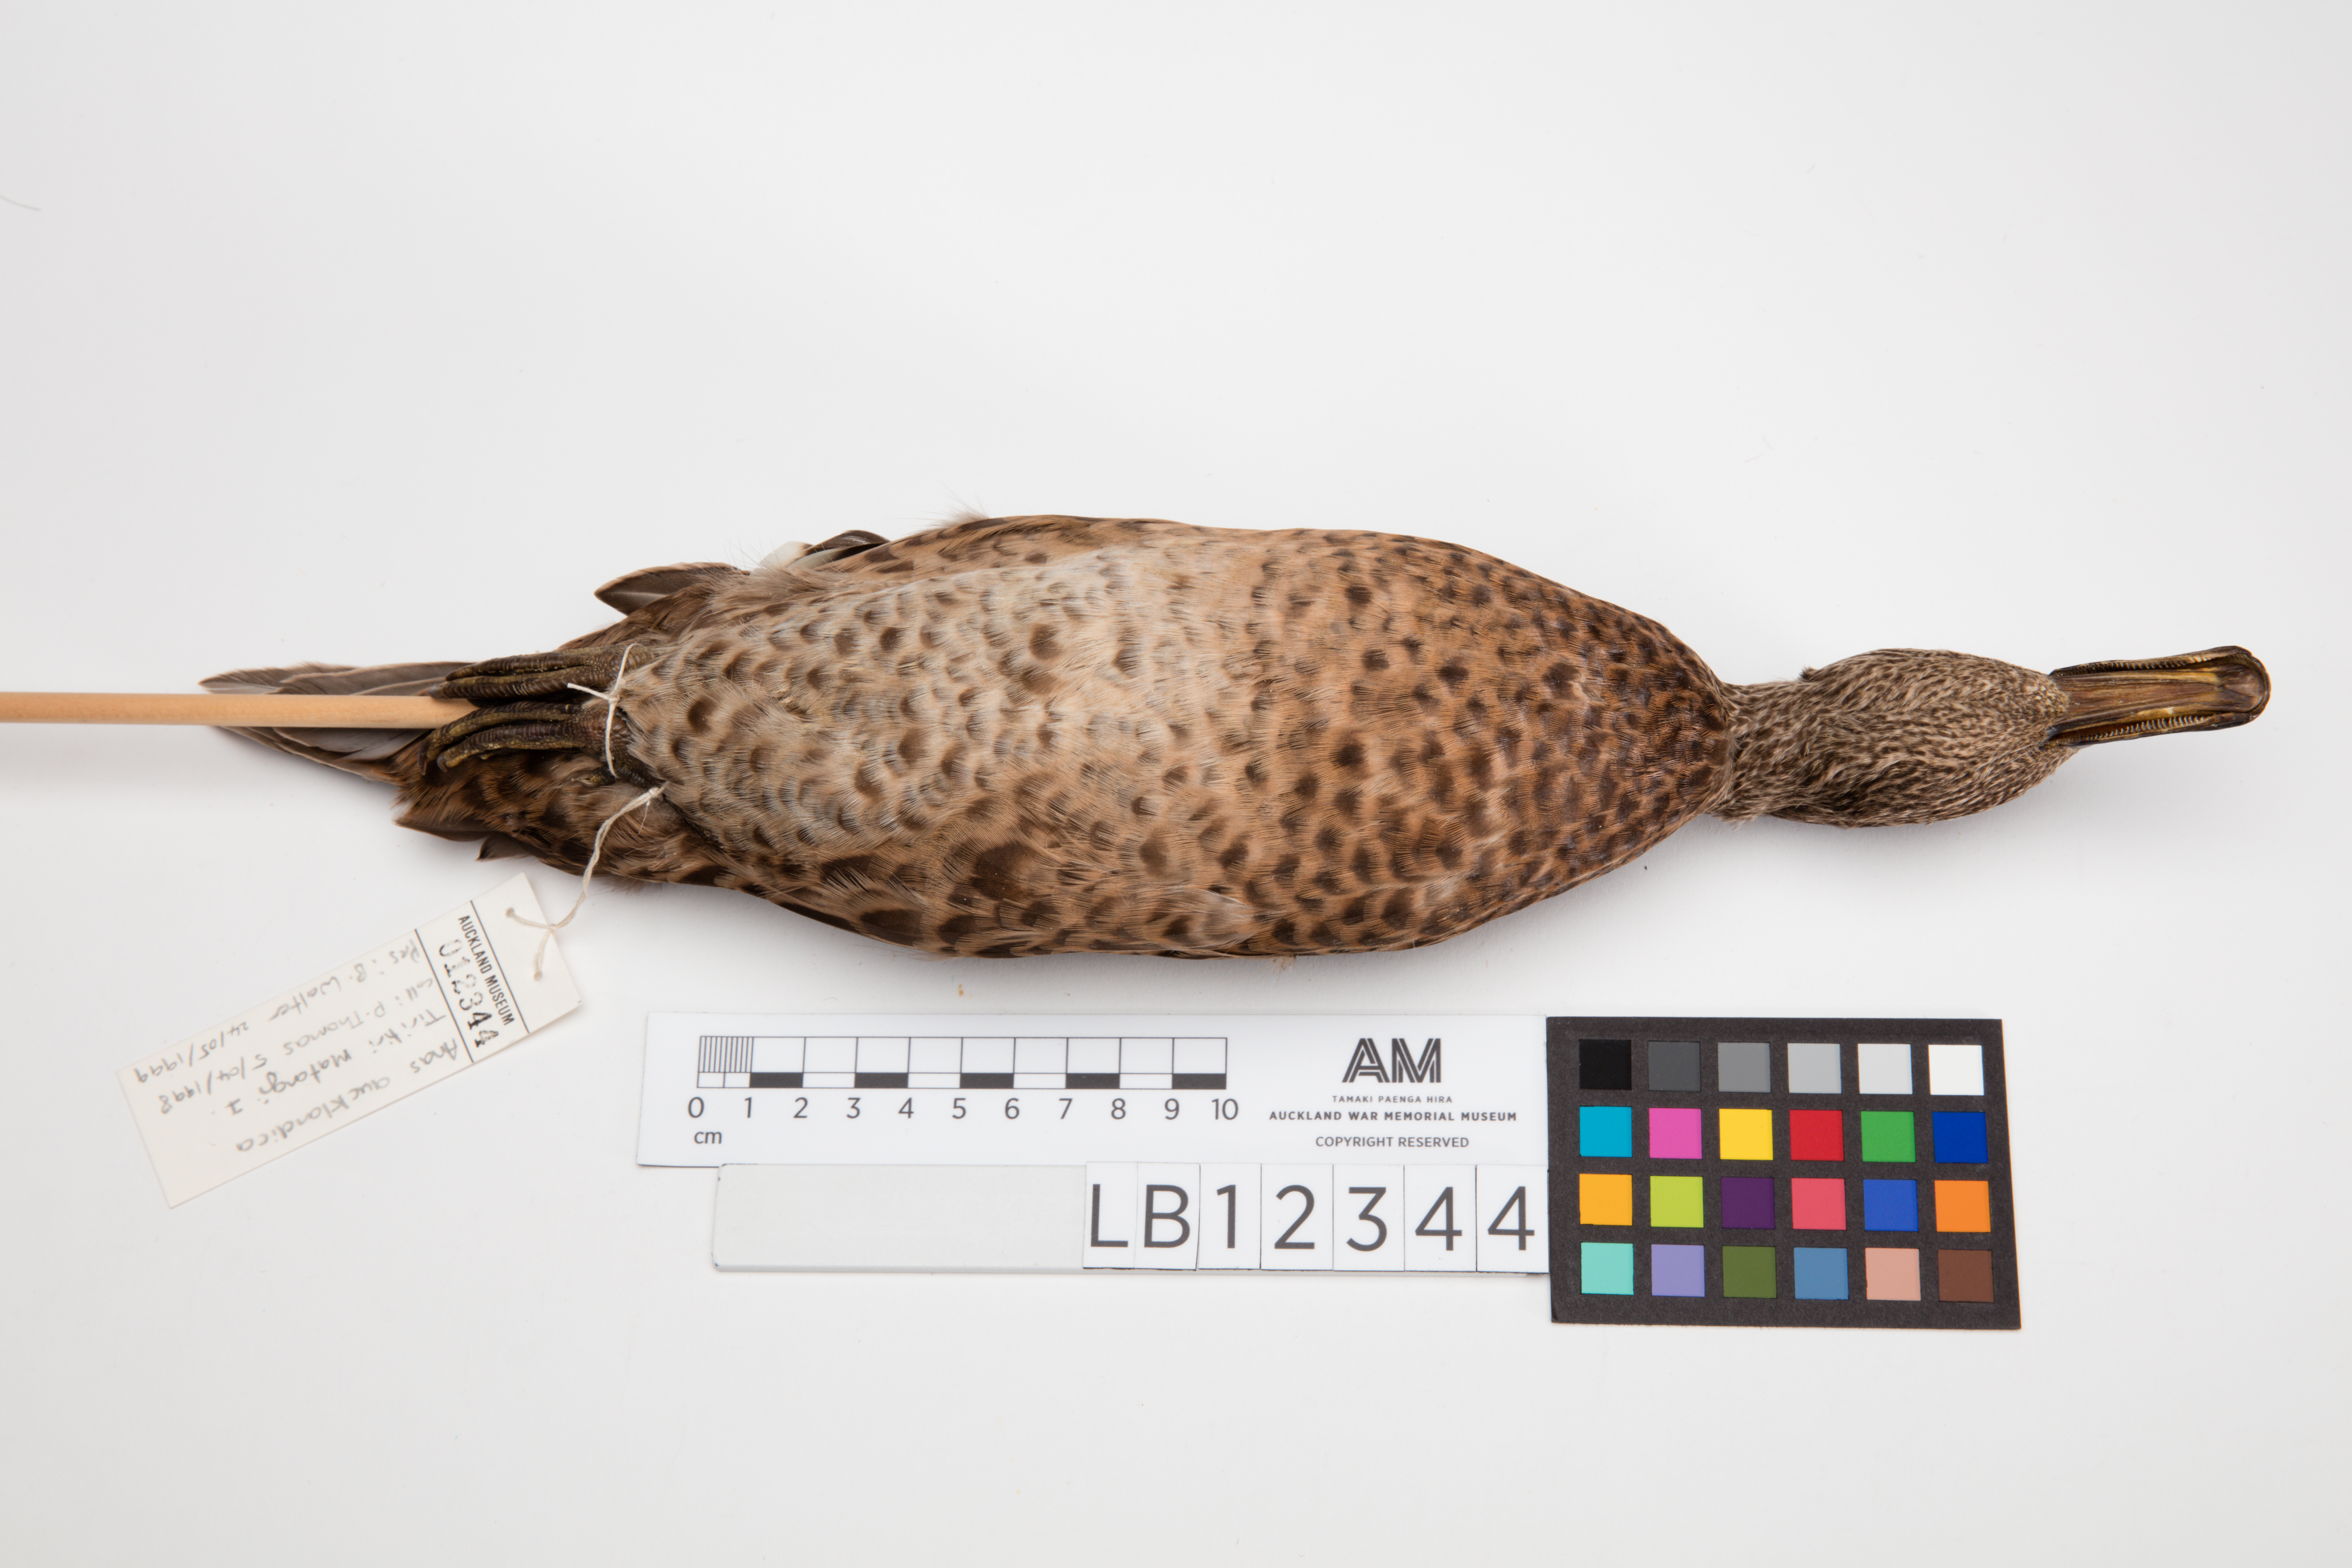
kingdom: Animalia
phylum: Chordata
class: Aves
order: Anseriformes
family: Anatidae
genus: Anas
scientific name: Anas chlorotis
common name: Brown teal
